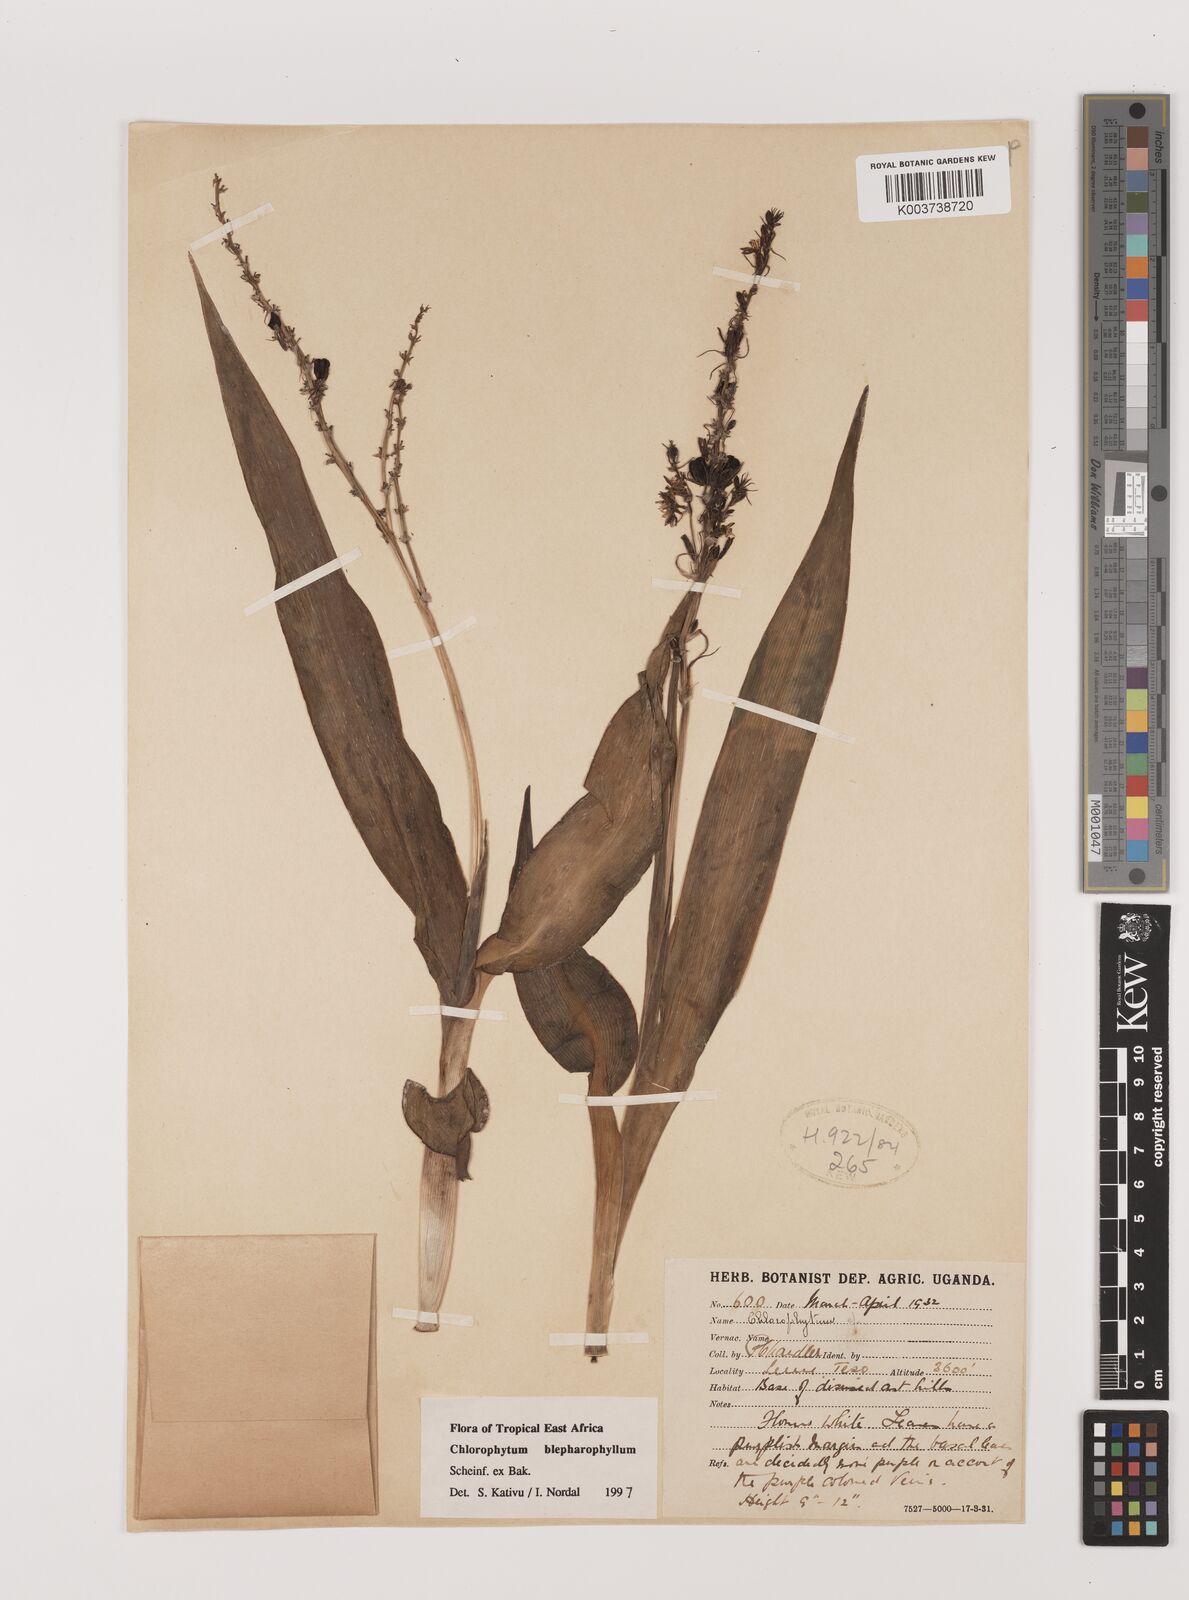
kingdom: Plantae
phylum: Tracheophyta
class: Liliopsida
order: Asparagales
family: Asparagaceae
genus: Chlorophytum
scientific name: Chlorophytum blepharophyllum
